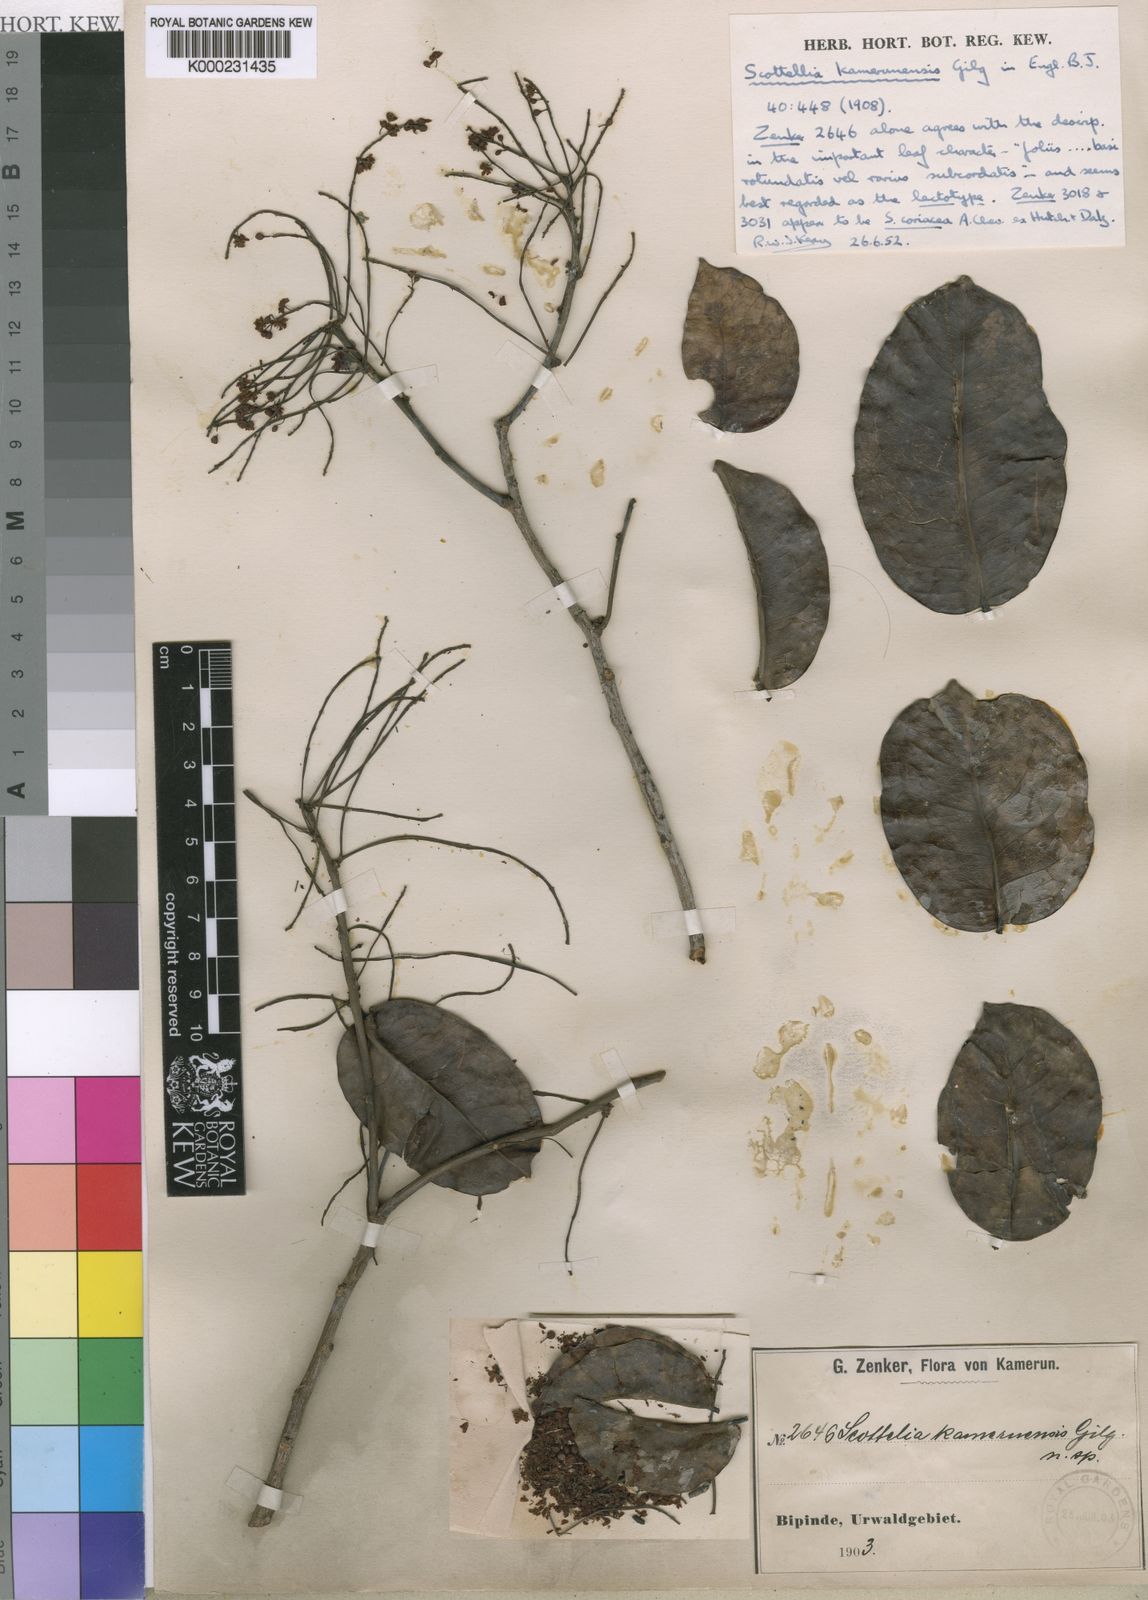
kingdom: Plantae
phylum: Tracheophyta
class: Magnoliopsida
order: Malpighiales
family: Achariaceae
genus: Scottellia
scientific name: Scottellia klaineana
